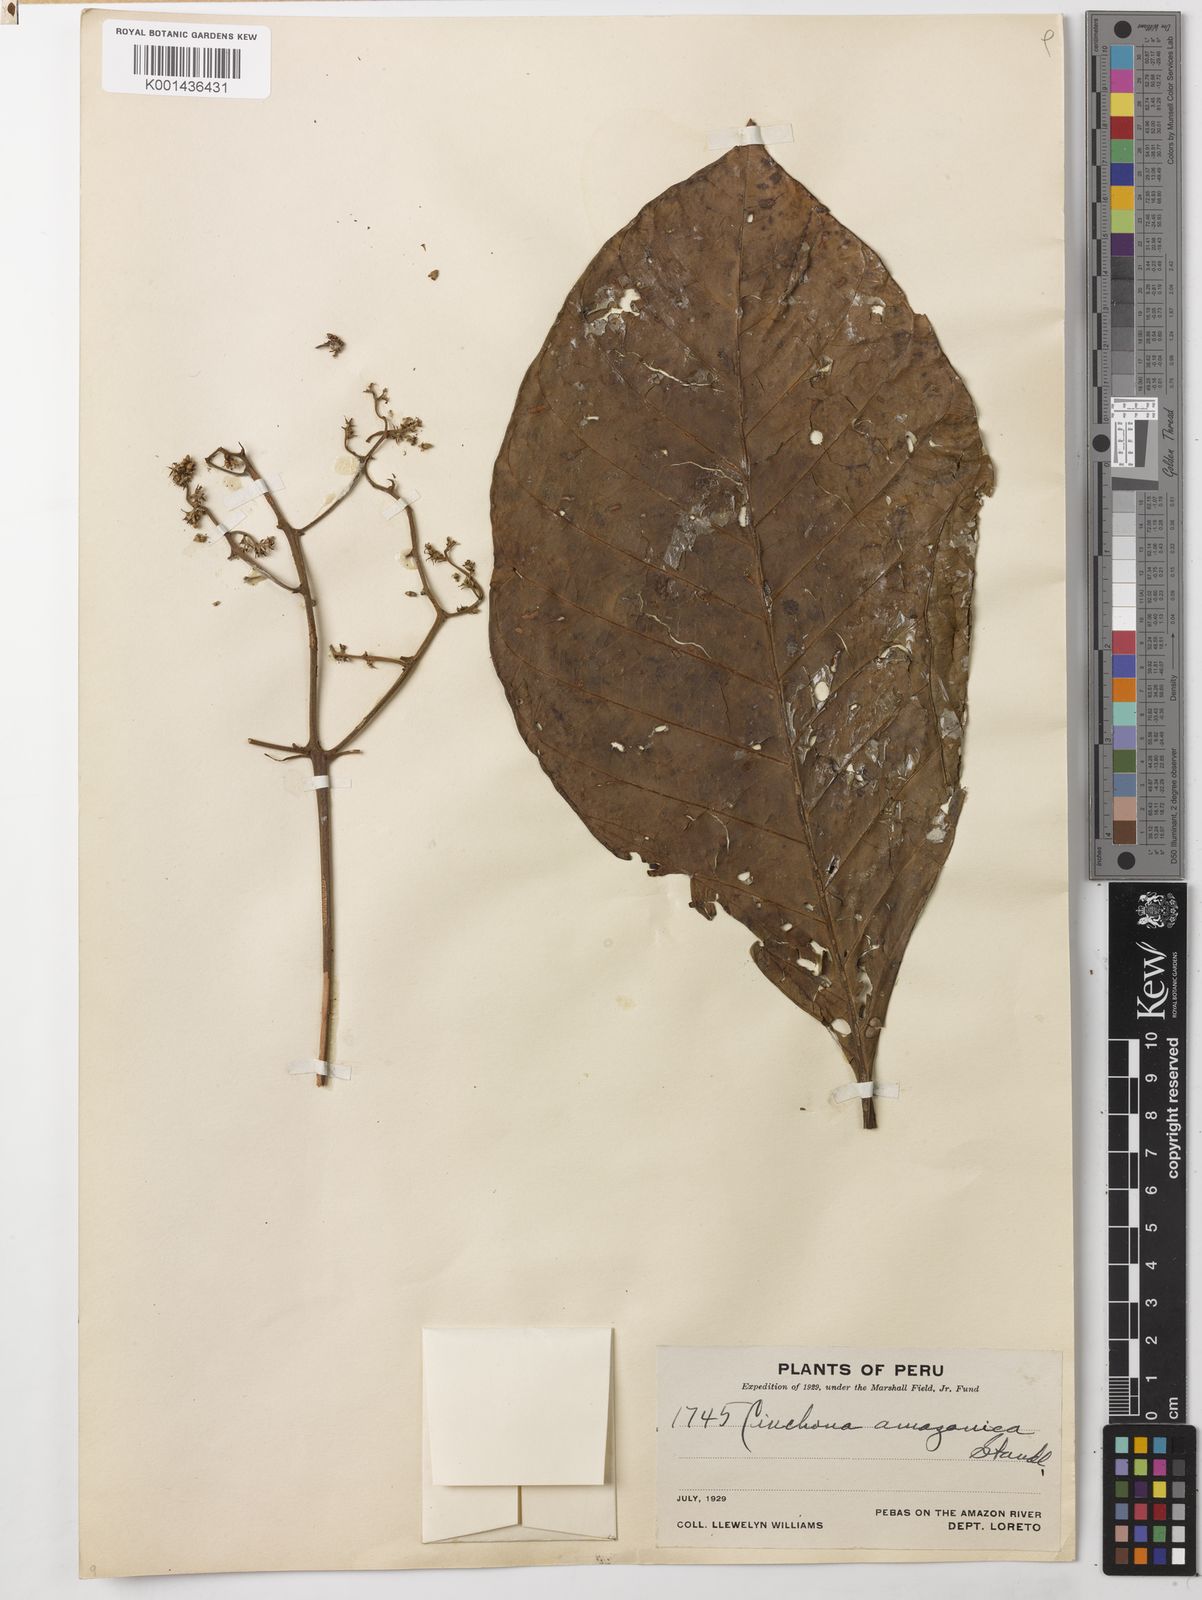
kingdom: Plantae
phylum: Tracheophyta
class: Magnoliopsida
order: Gentianales
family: Rubiaceae
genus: Cinchonopsis
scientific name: Cinchonopsis amazonica
